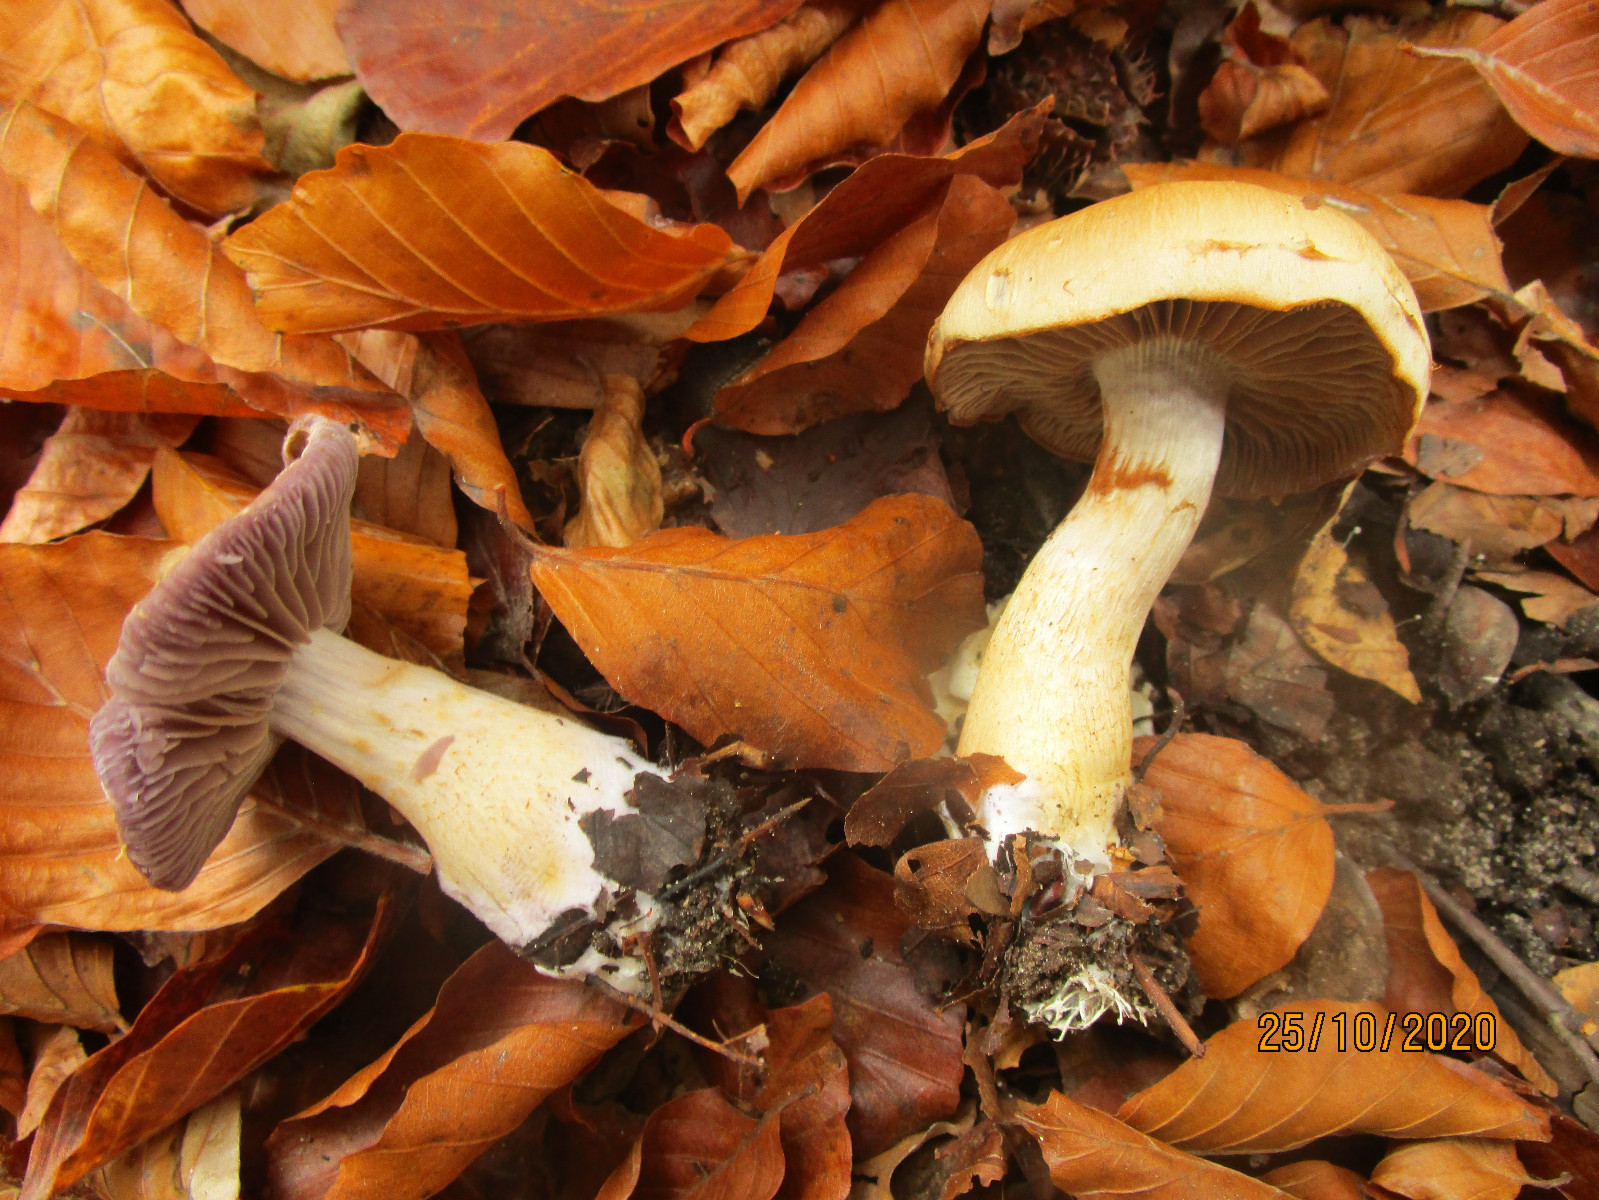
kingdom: Fungi
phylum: Basidiomycota
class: Agaricomycetes
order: Agaricales
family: Cortinariaceae
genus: Cortinarius
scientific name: Cortinarius
